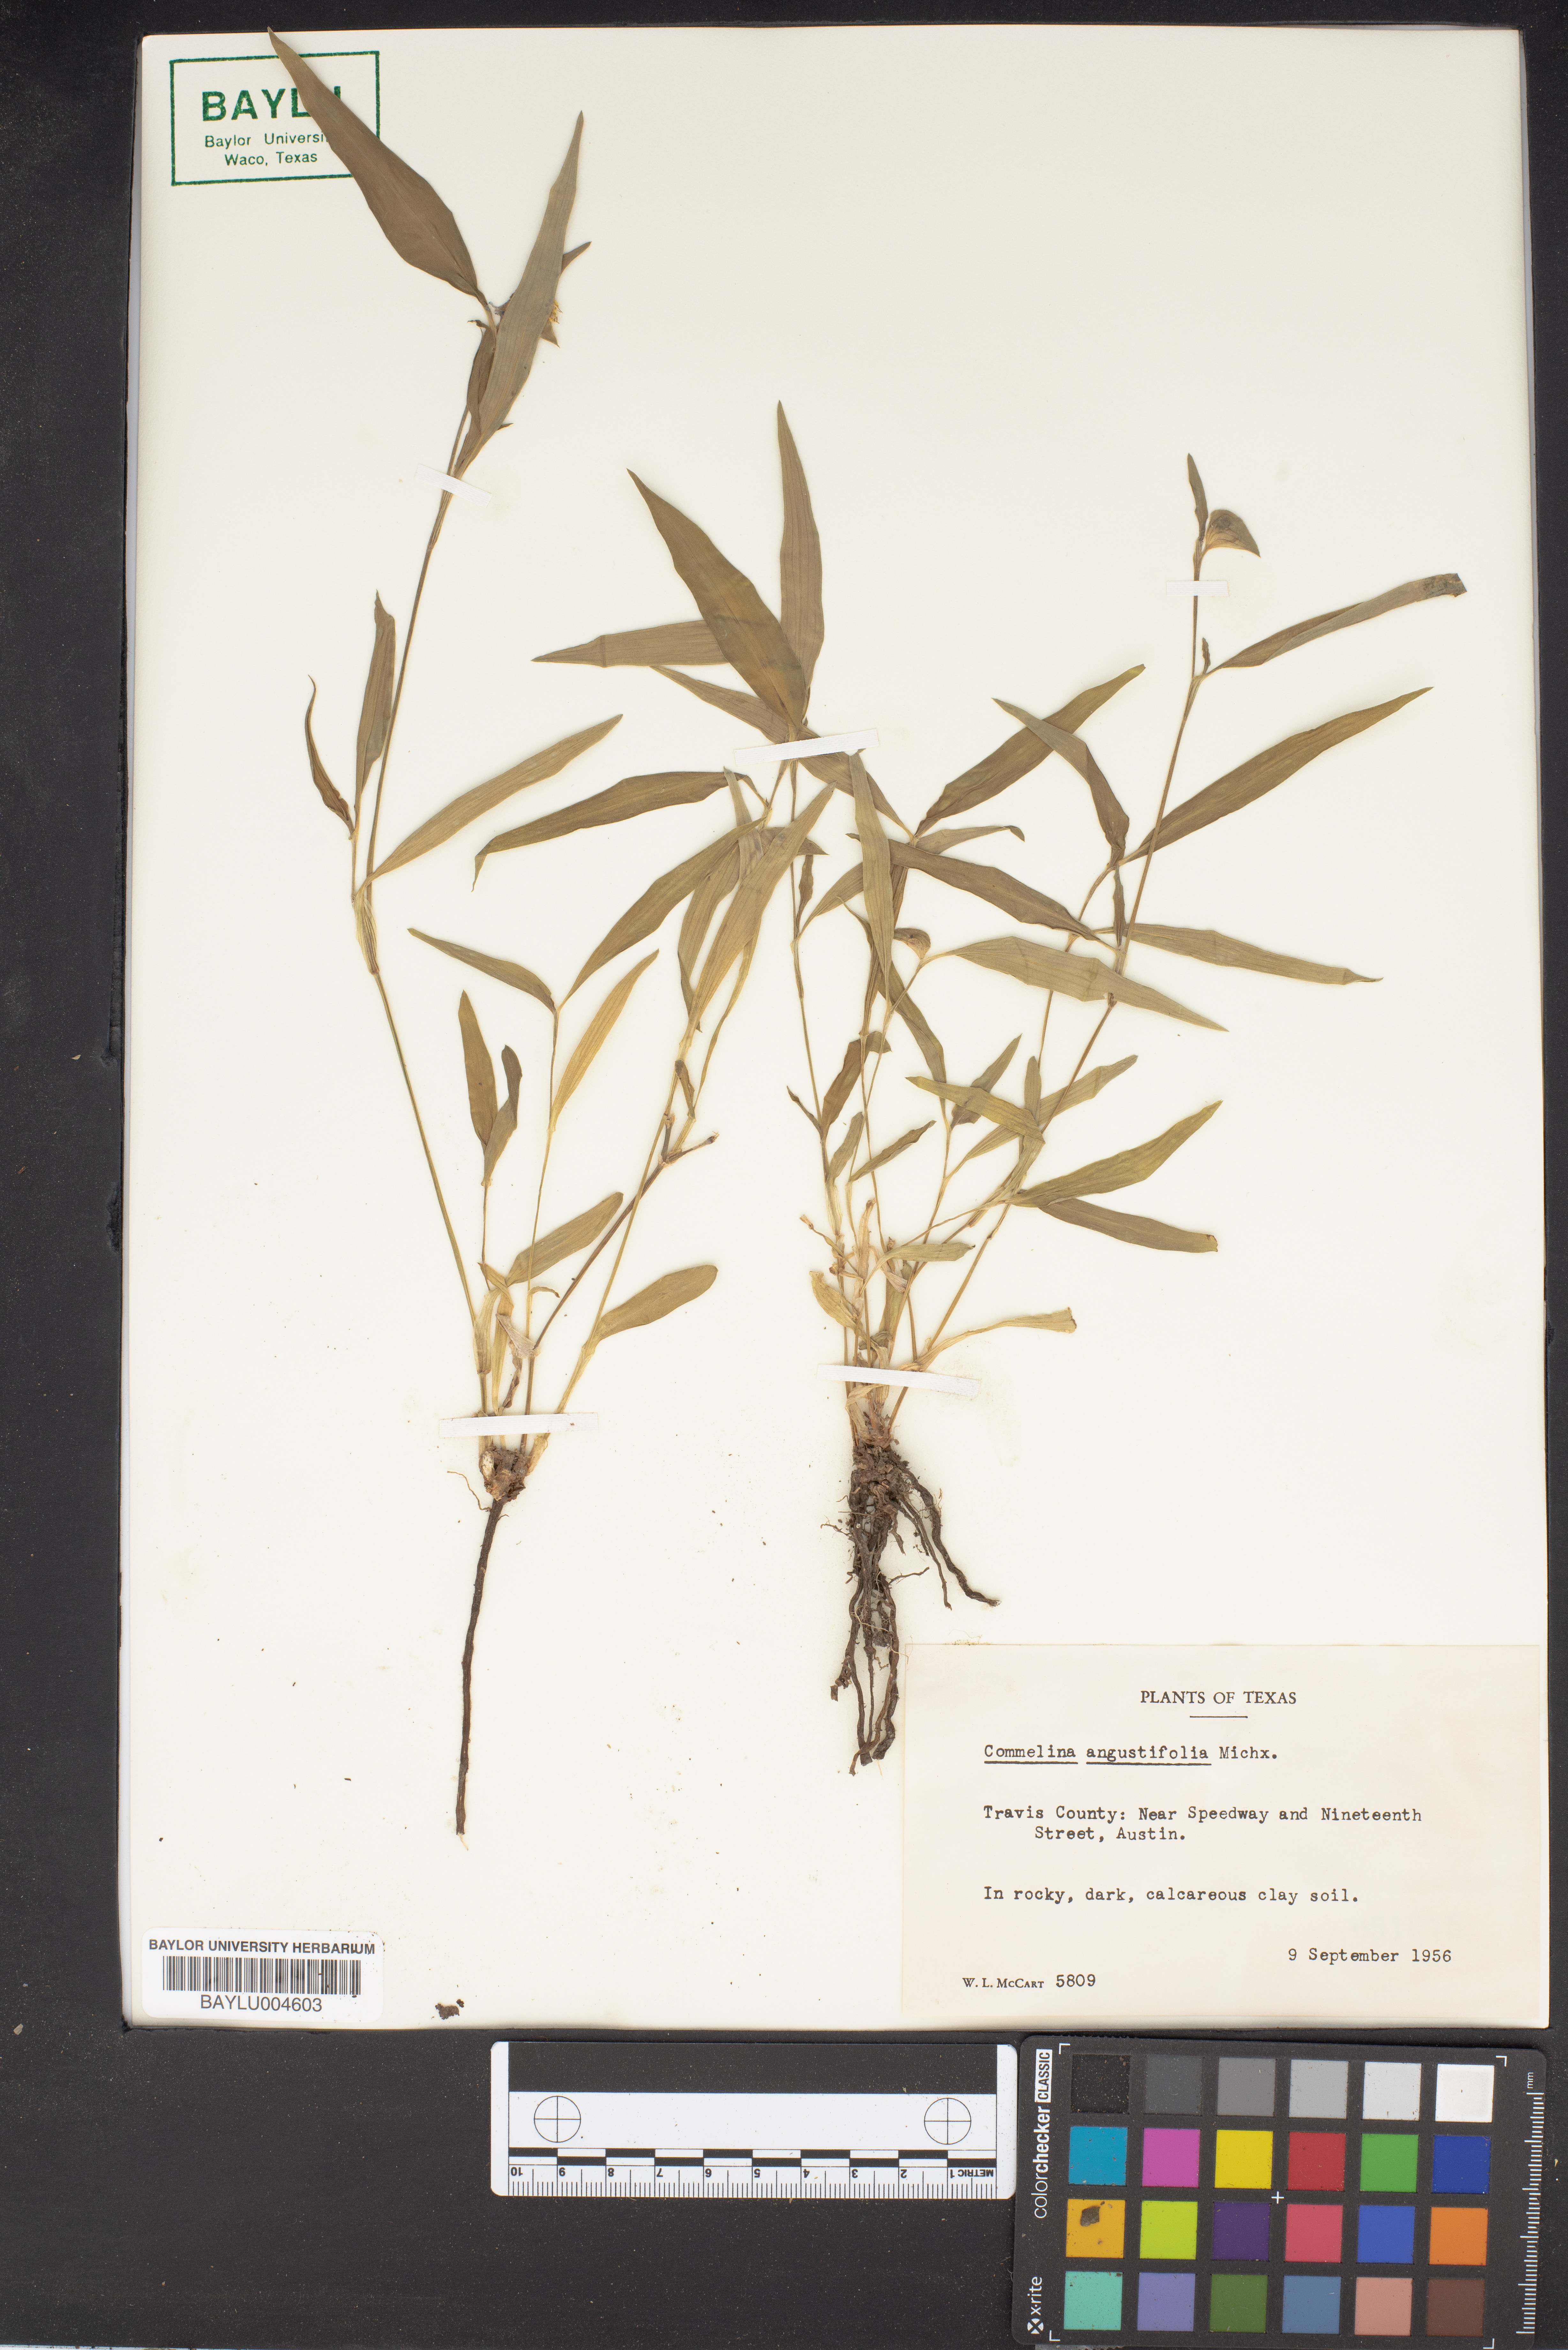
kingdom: Plantae
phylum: Tracheophyta
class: Liliopsida
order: Commelinales
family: Commelinaceae
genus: Commelina
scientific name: Commelina erecta
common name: Blousel blommetjie
